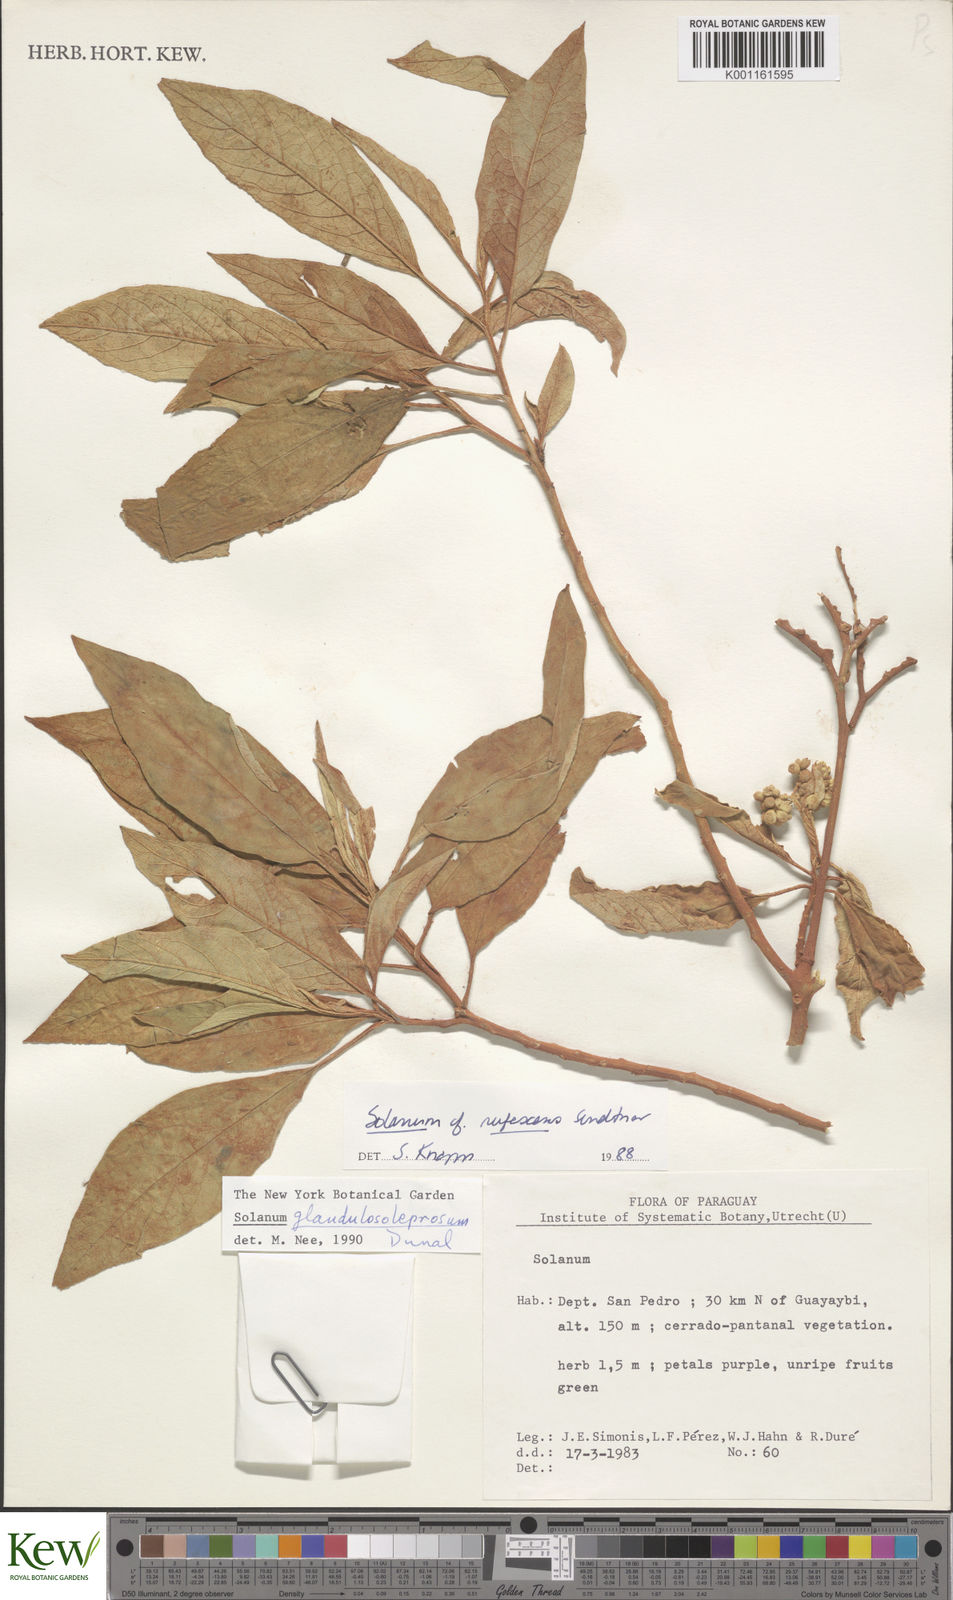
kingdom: Plantae
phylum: Tracheophyta
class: Magnoliopsida
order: Solanales
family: Solanaceae
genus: Solanum
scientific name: Solanum granulosoleprosum
